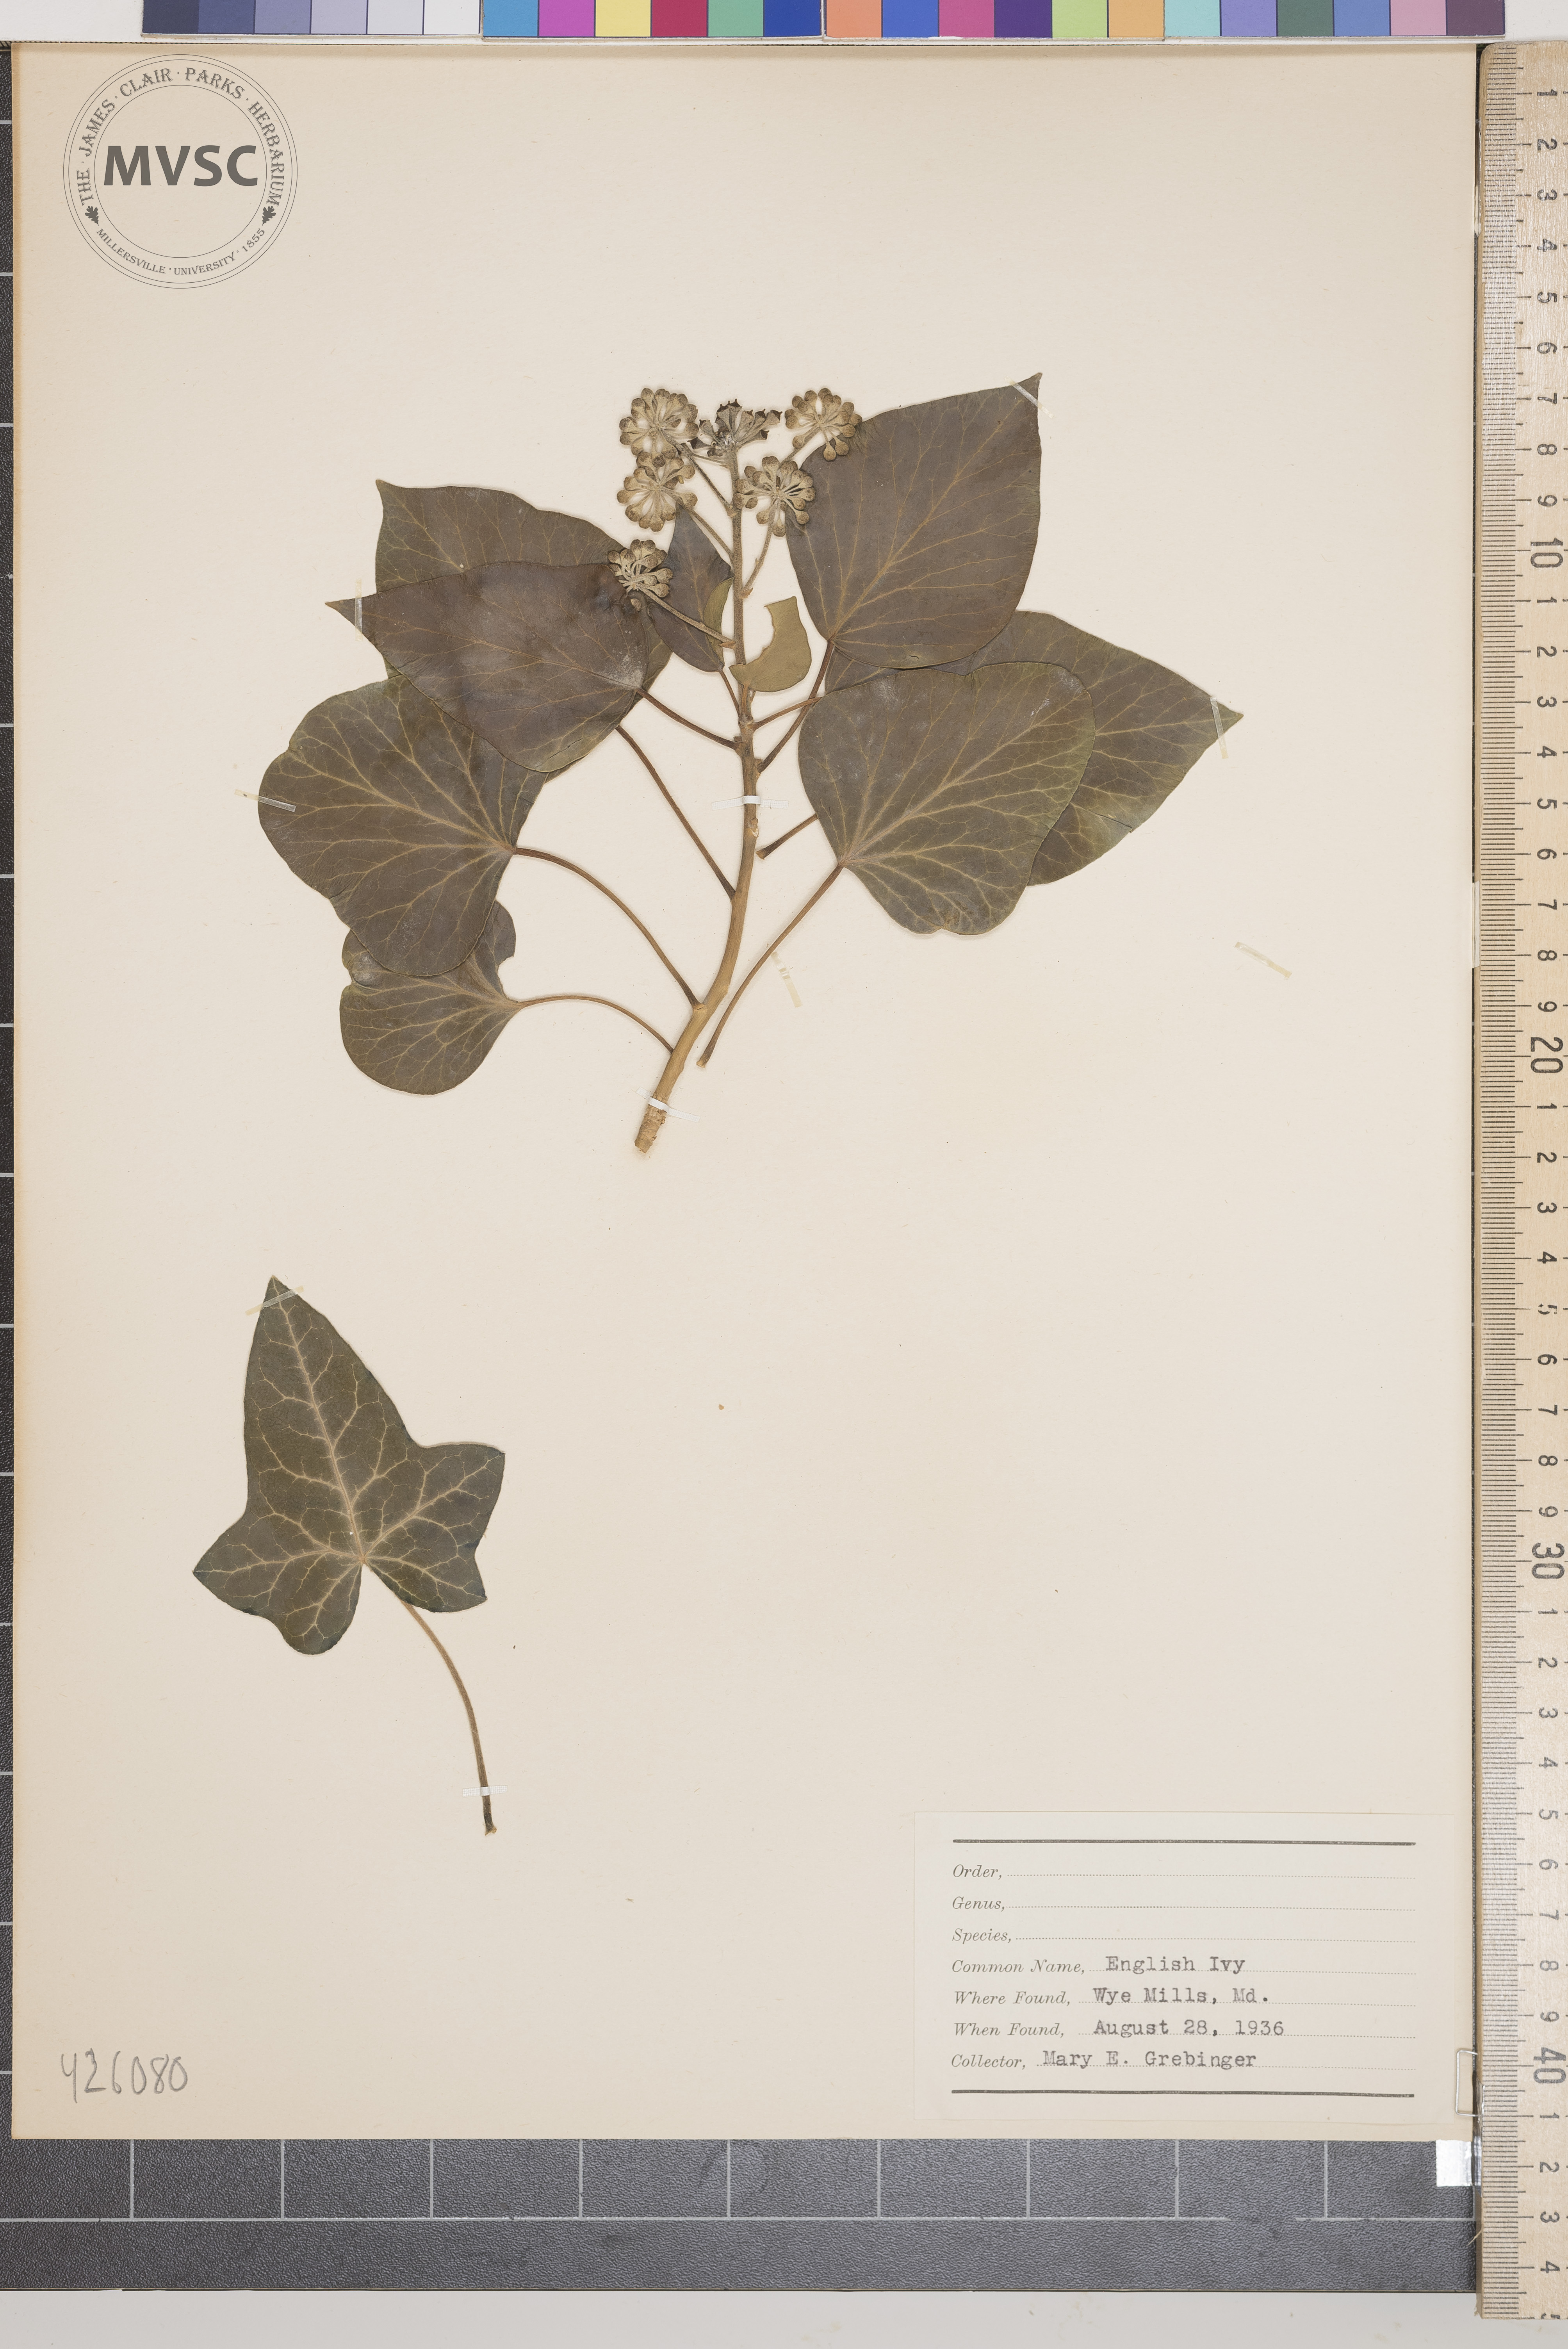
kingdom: Plantae
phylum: Tracheophyta
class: Magnoliopsida
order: Apiales
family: Araliaceae
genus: Hedera
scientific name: Hedera helix
